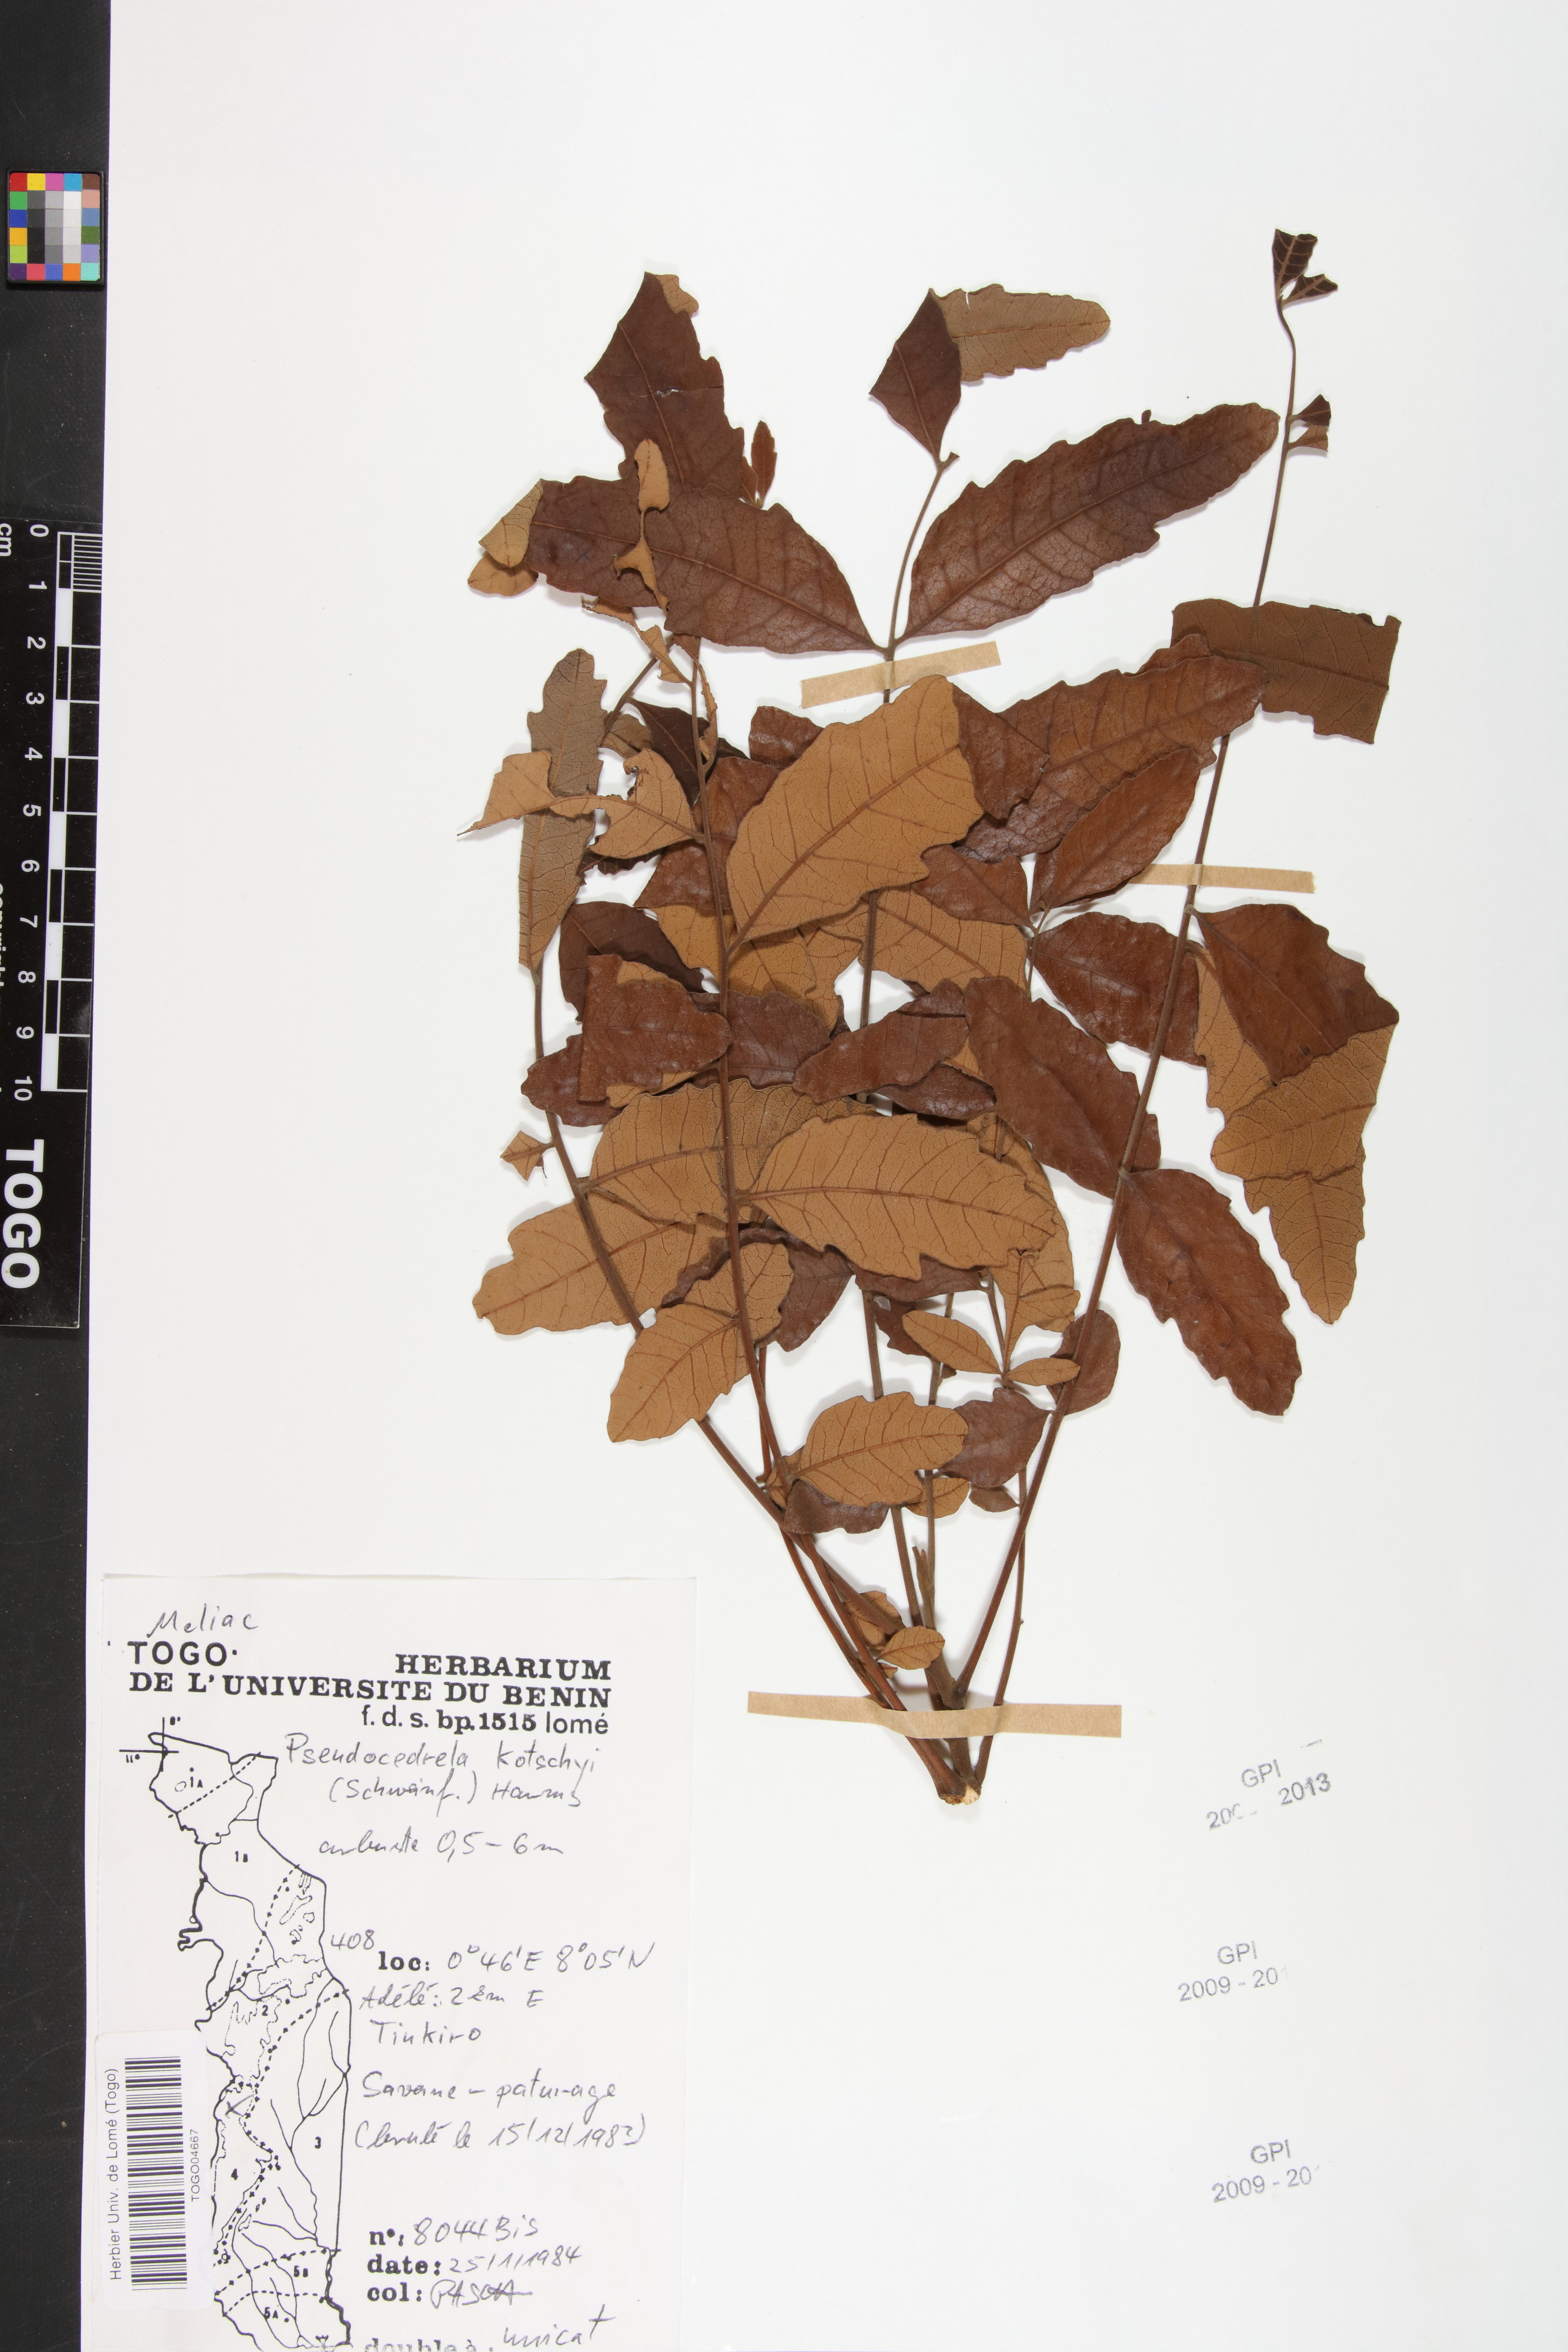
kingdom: Plantae
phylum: Tracheophyta
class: Magnoliopsida
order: Sapindales
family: Meliaceae
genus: Pseudocedrela
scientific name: Pseudocedrela kotschyi
